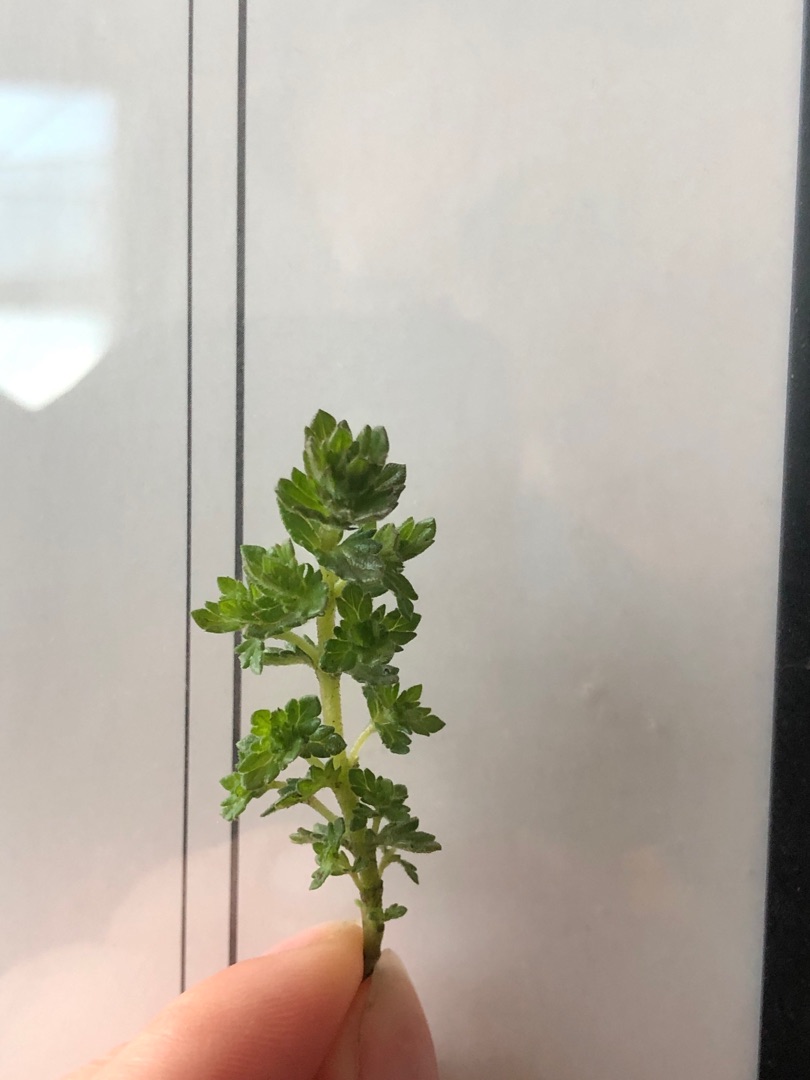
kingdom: Plantae
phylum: Tracheophyta
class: Magnoliopsida
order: Lamiales
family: Orobanchaceae
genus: Euphrasia
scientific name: Euphrasia nemorosa
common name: Kort øjentrøst
